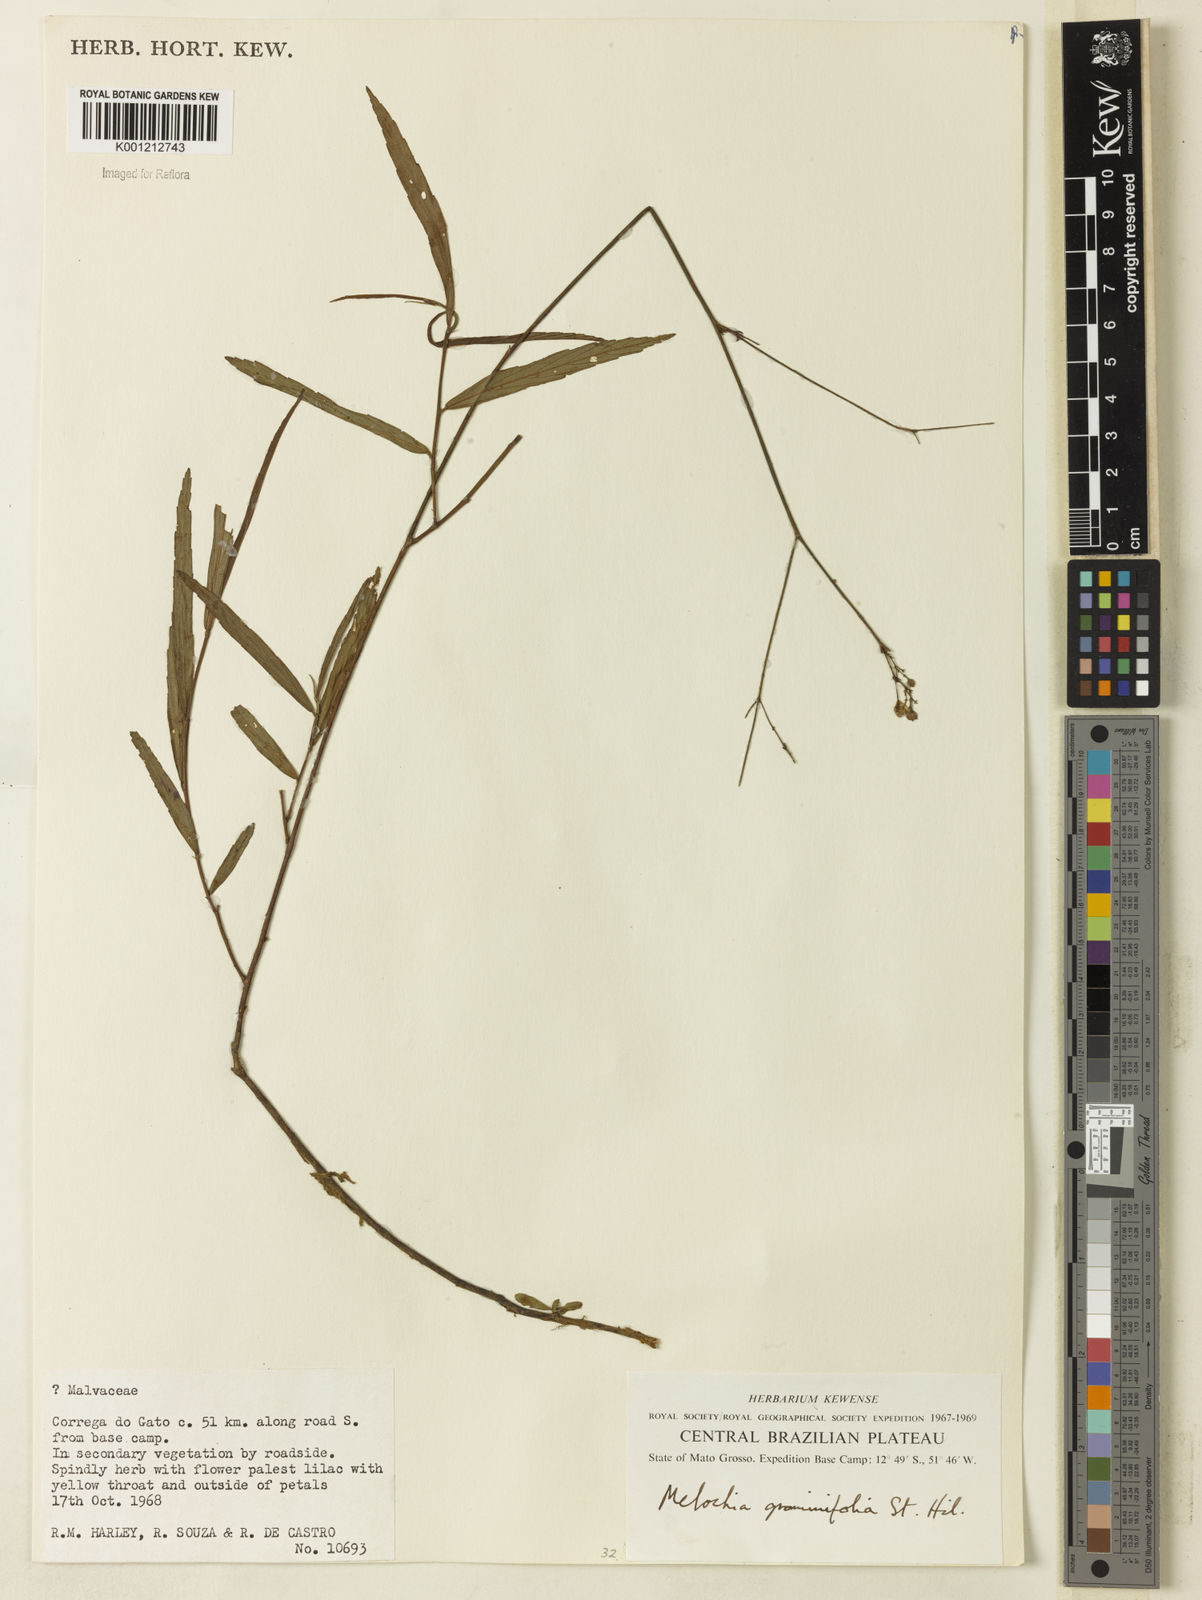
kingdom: Plantae
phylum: Tracheophyta
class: Magnoliopsida
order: Malvales
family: Malvaceae
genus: Melochia
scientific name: Melochia graminifolia
